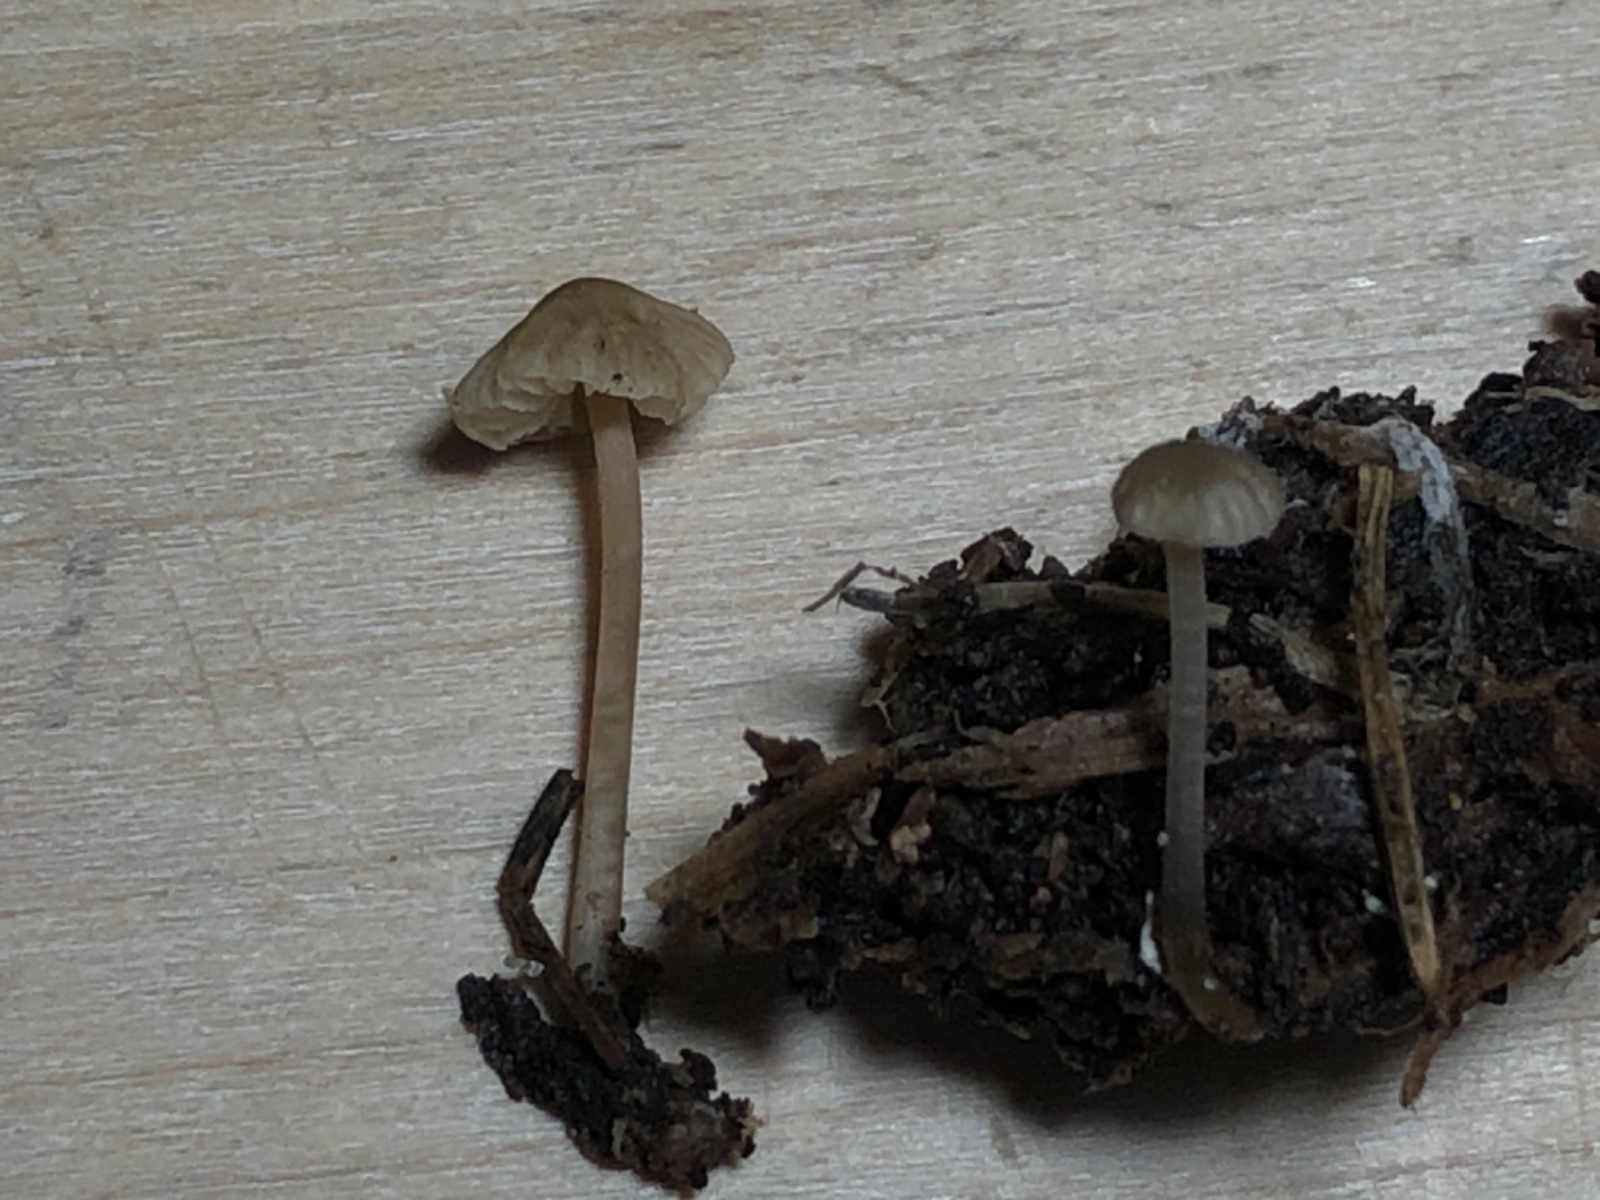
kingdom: Fungi
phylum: Basidiomycota
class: Agaricomycetes
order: Agaricales
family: Mycenaceae
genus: Mycena
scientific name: Mycena
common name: huesvamp
